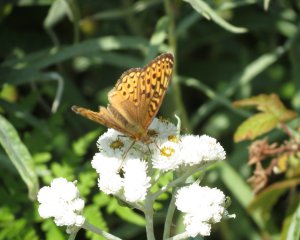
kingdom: Animalia
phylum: Arthropoda
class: Insecta
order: Lepidoptera
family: Nymphalidae
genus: Speyeria
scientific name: Speyeria atlantis
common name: Atlantis Fritillary
